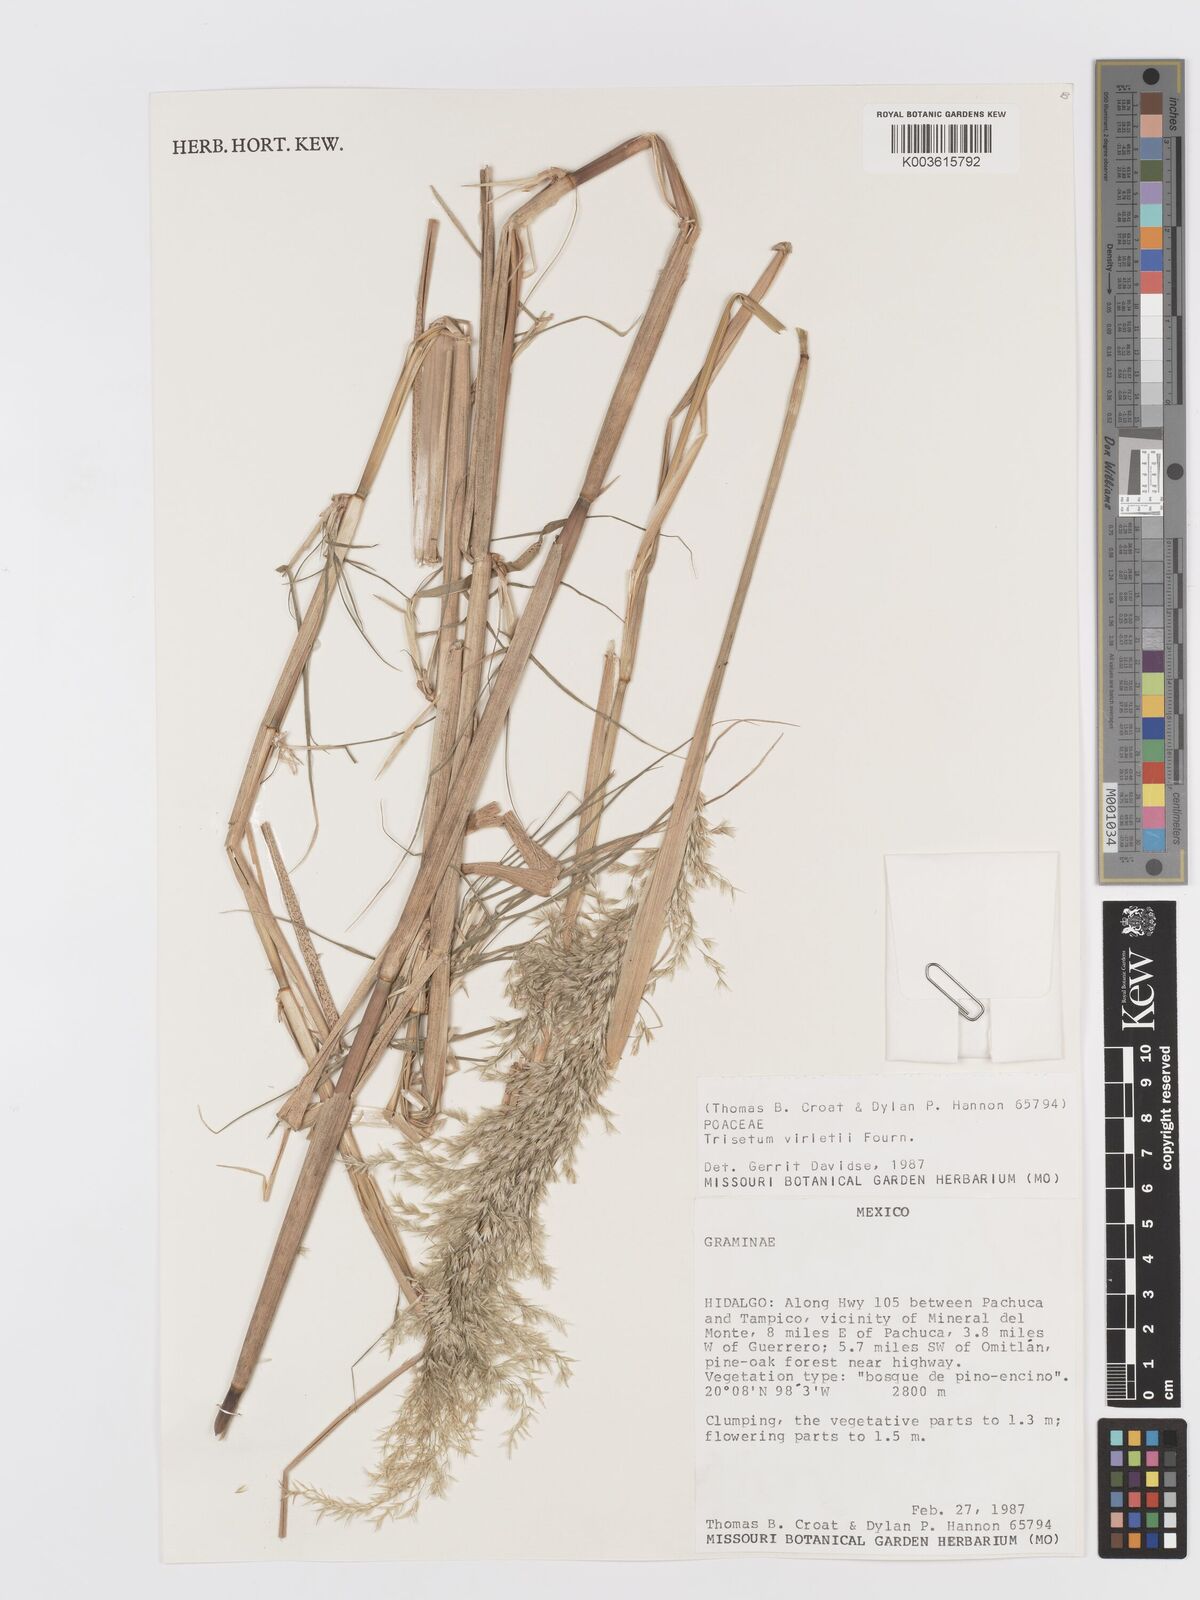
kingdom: Plantae
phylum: Tracheophyta
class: Liliopsida
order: Poales
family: Poaceae
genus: Peyritschia
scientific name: Peyritschia virletii
